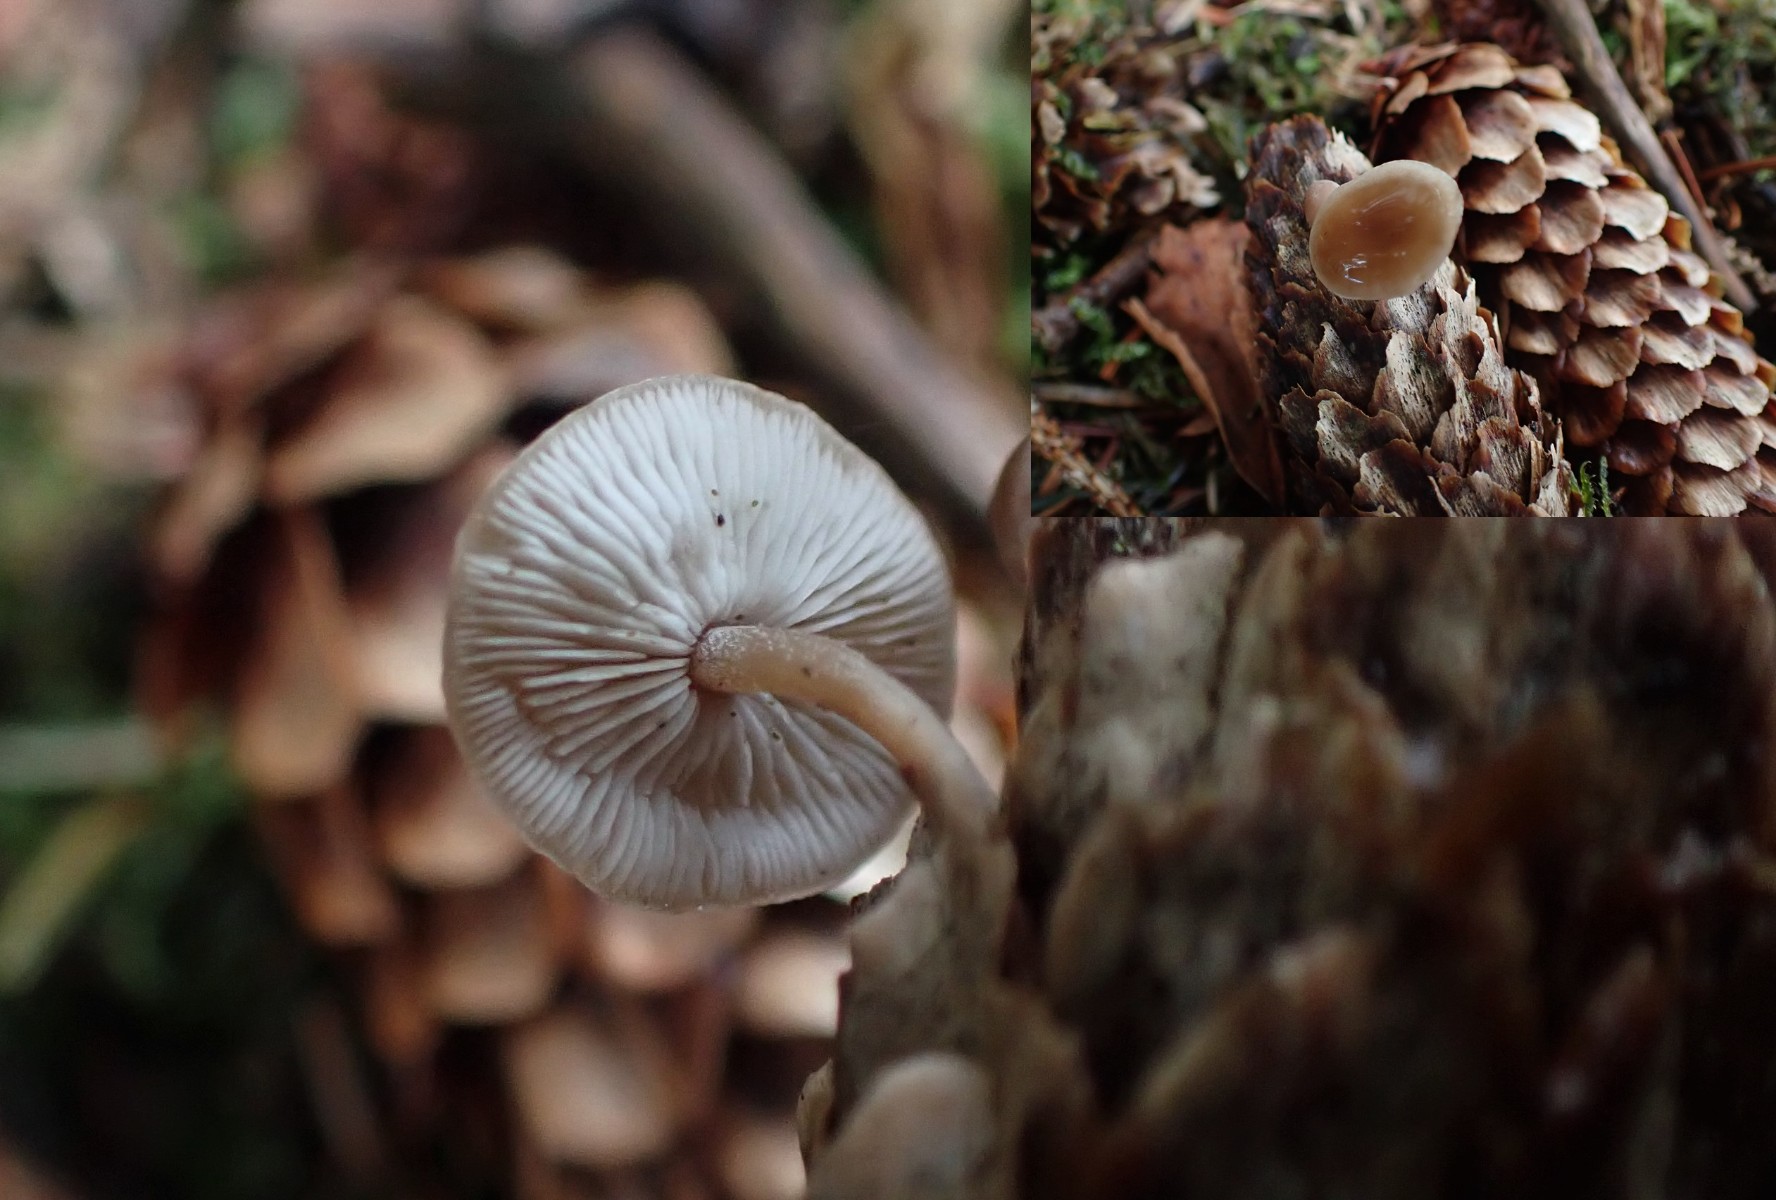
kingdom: Fungi
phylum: Basidiomycota
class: Agaricomycetes
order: Agaricales
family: Marasmiaceae
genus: Baeospora
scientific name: Baeospora myosura
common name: koglebruskhat
